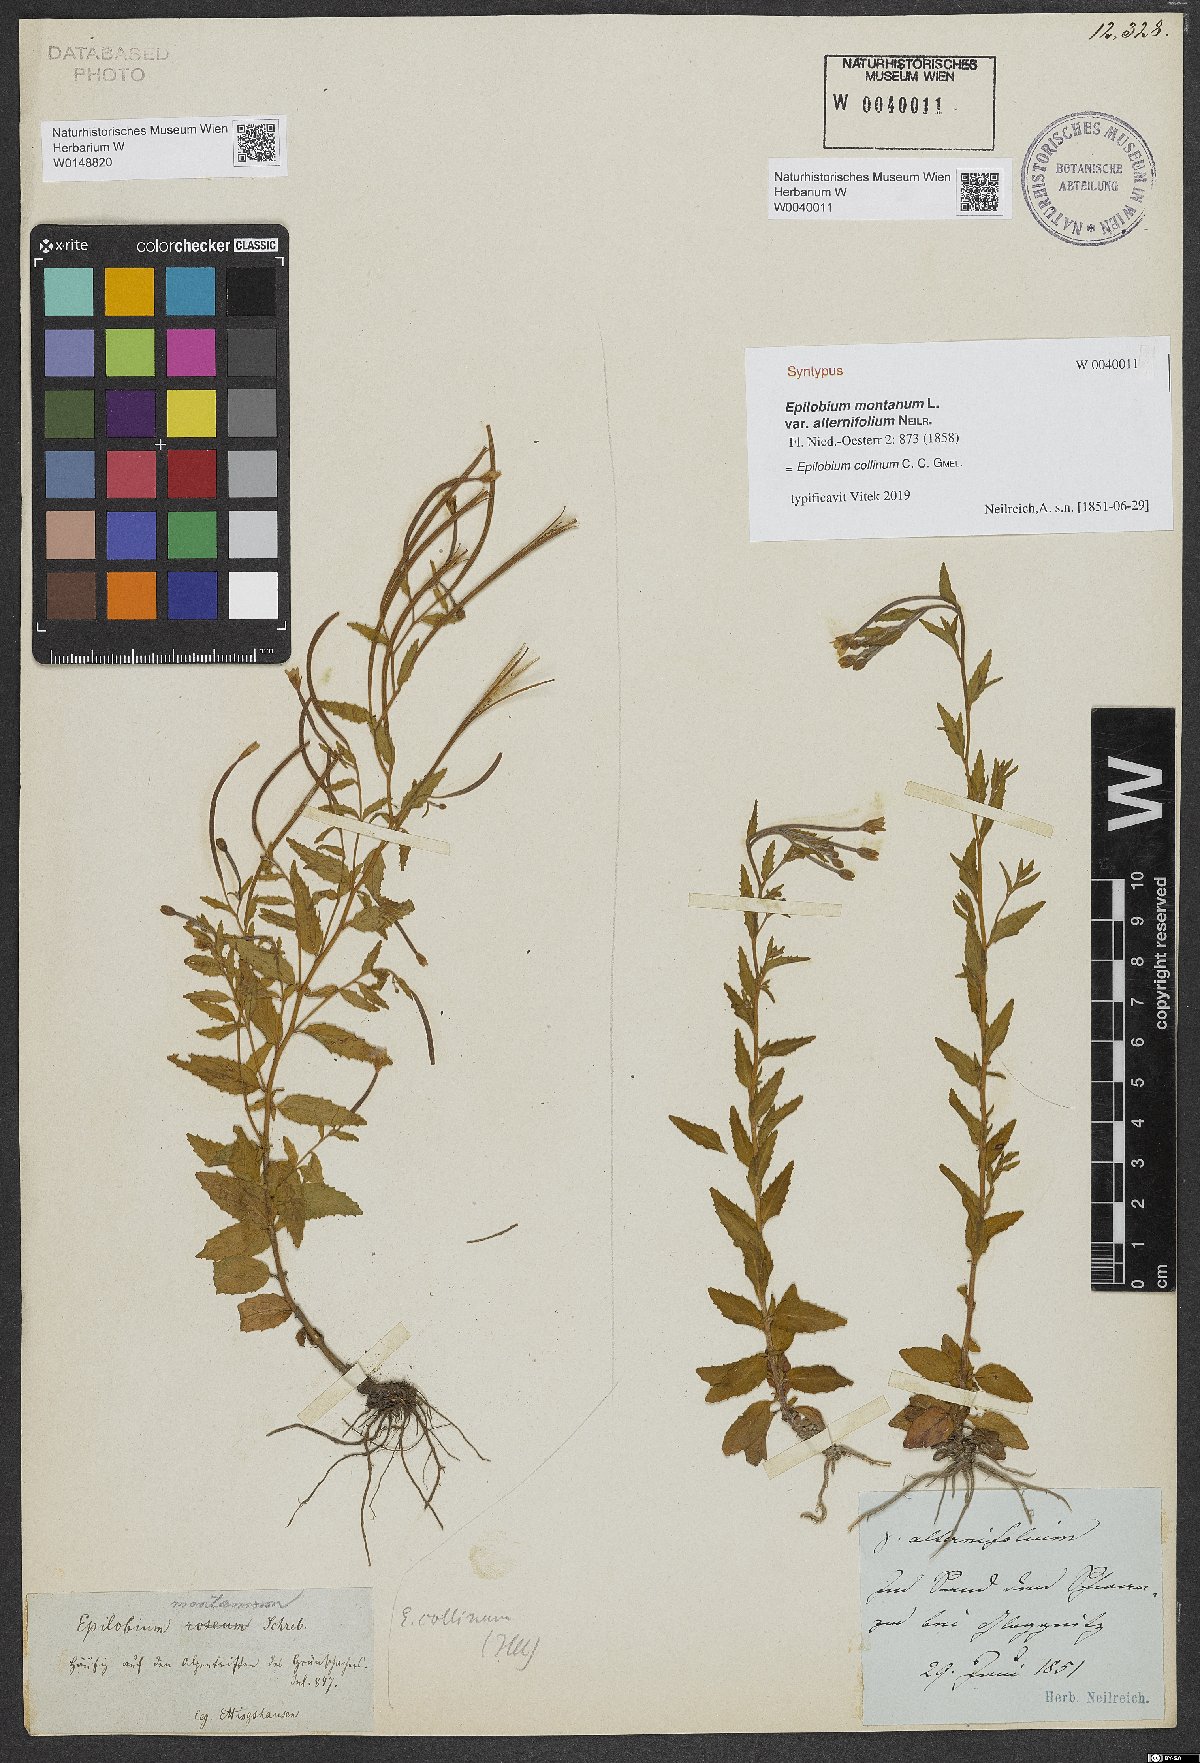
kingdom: Plantae
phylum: Tracheophyta
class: Magnoliopsida
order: Myrtales
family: Onagraceae
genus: Epilobium
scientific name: Epilobium collinum
